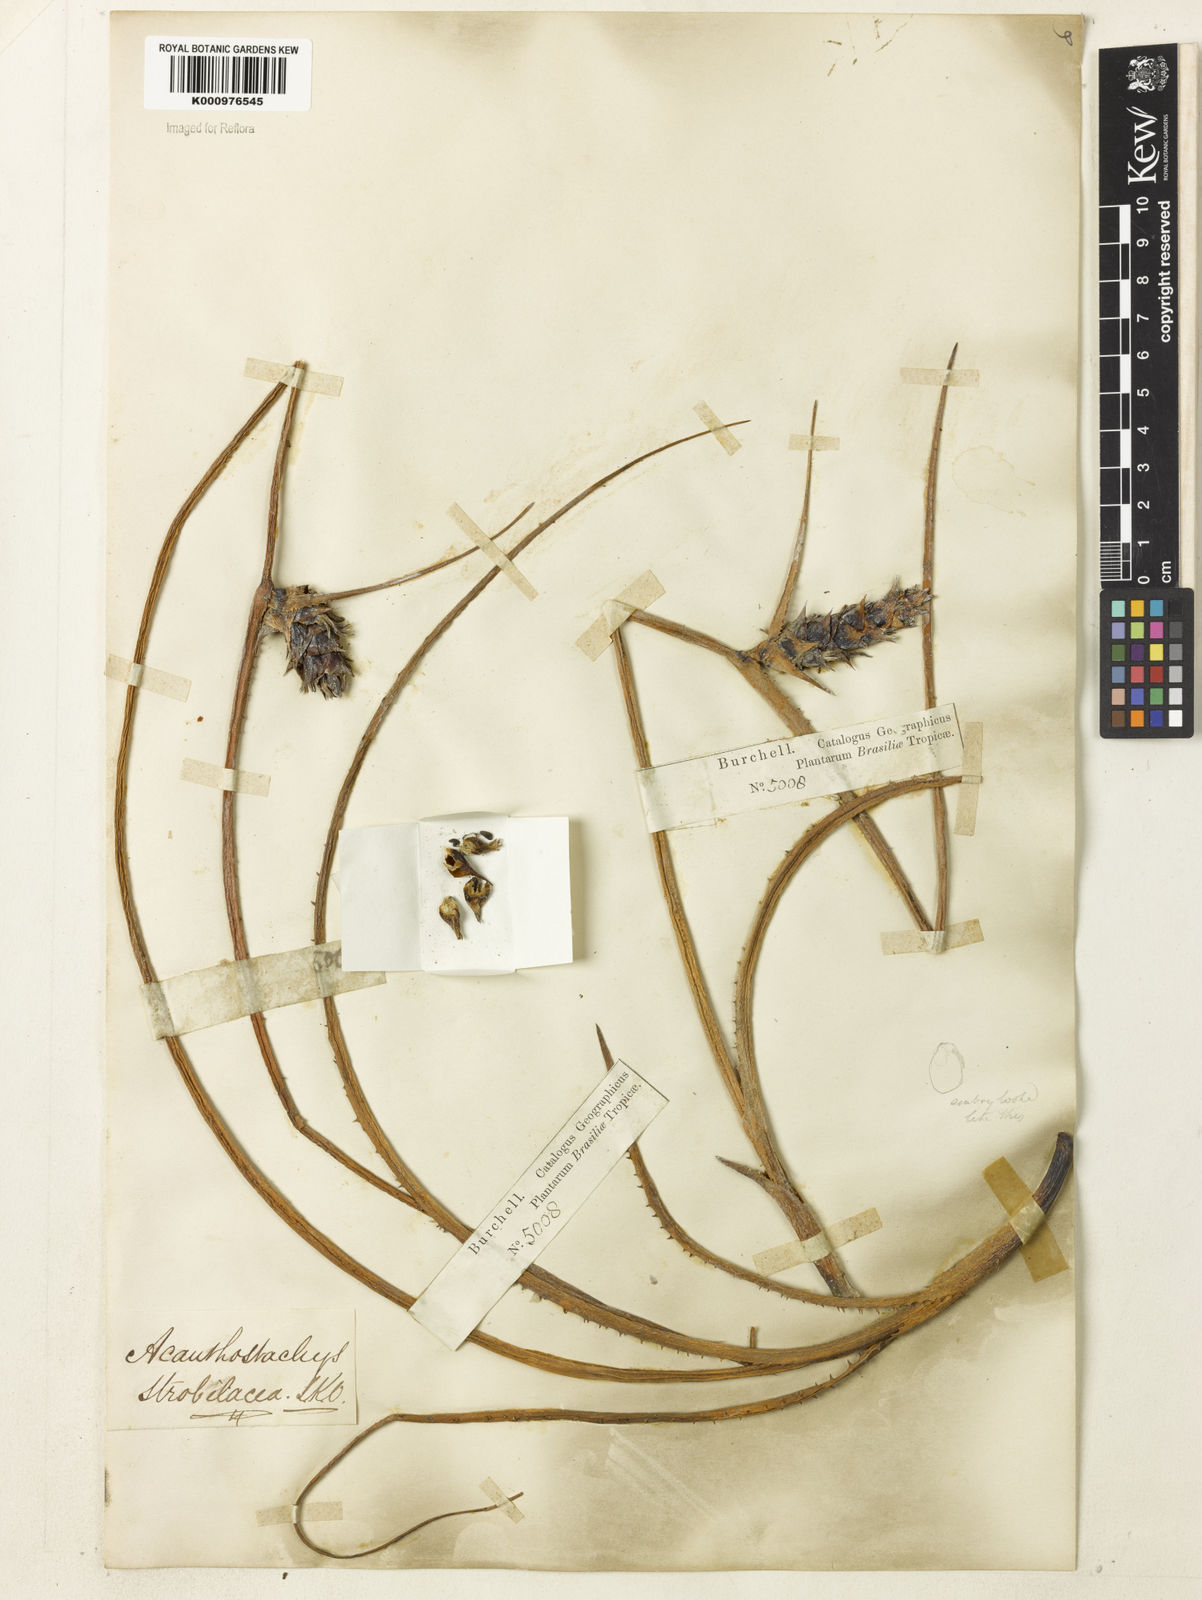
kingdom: Plantae
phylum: Tracheophyta
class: Liliopsida
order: Poales
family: Bromeliaceae
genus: Acanthostachys
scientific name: Acanthostachys
